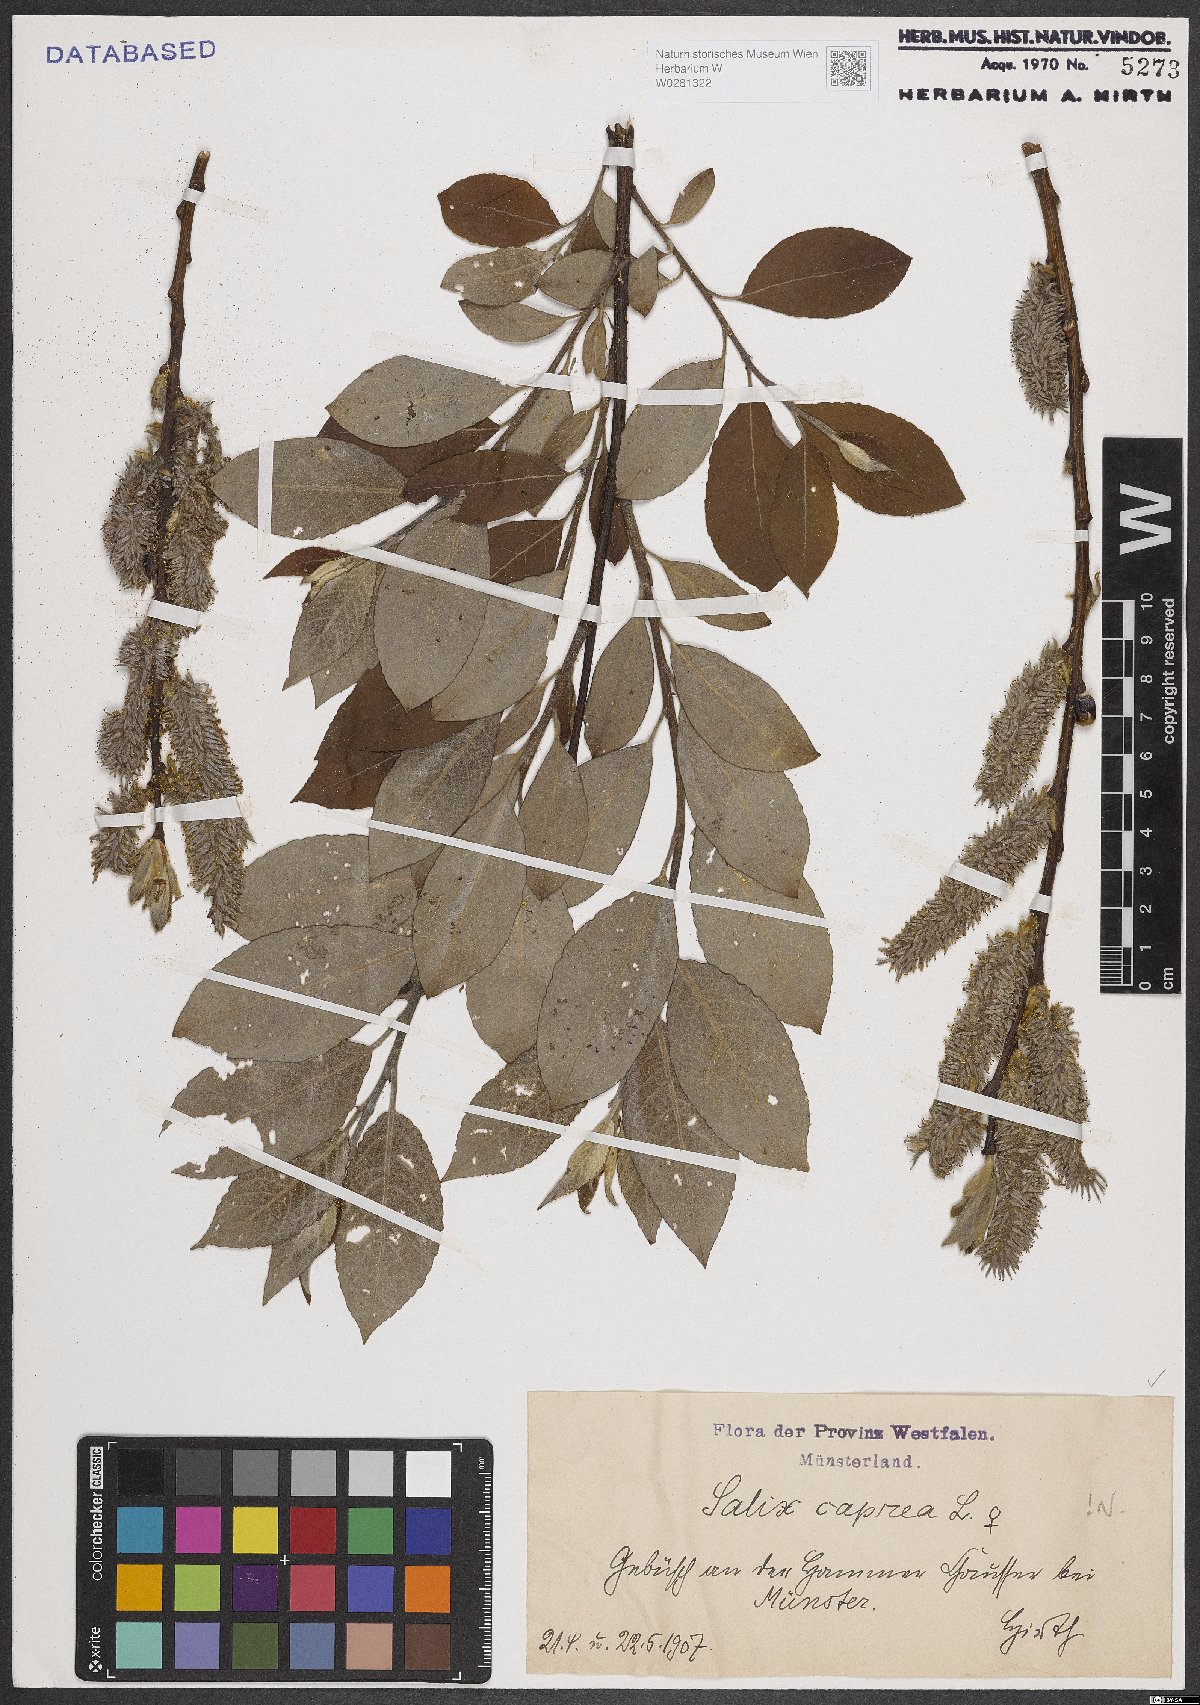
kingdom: Plantae
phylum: Tracheophyta
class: Magnoliopsida
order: Malpighiales
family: Salicaceae
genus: Salix
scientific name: Salix caprea
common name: Goat willow
